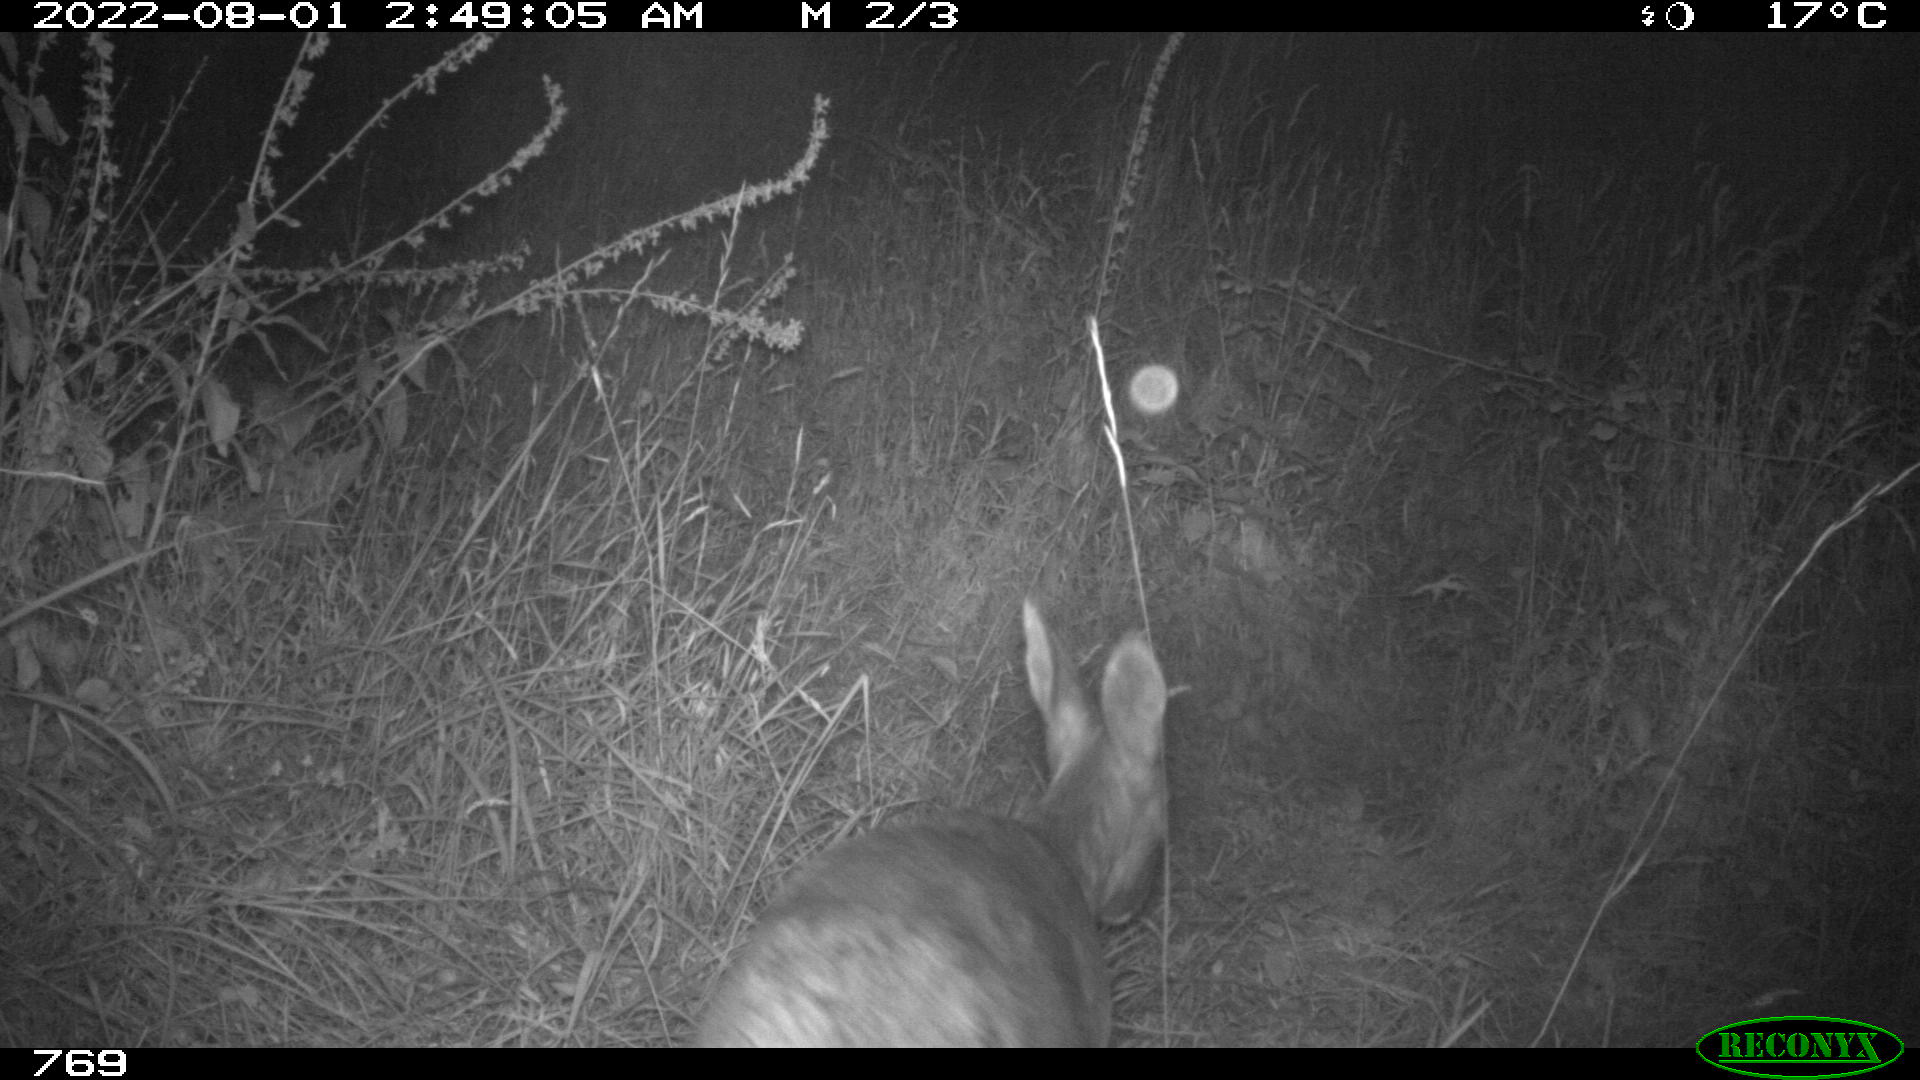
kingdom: Animalia
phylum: Chordata
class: Mammalia
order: Artiodactyla
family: Cervidae
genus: Capreolus
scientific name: Capreolus capreolus
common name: Western roe deer
